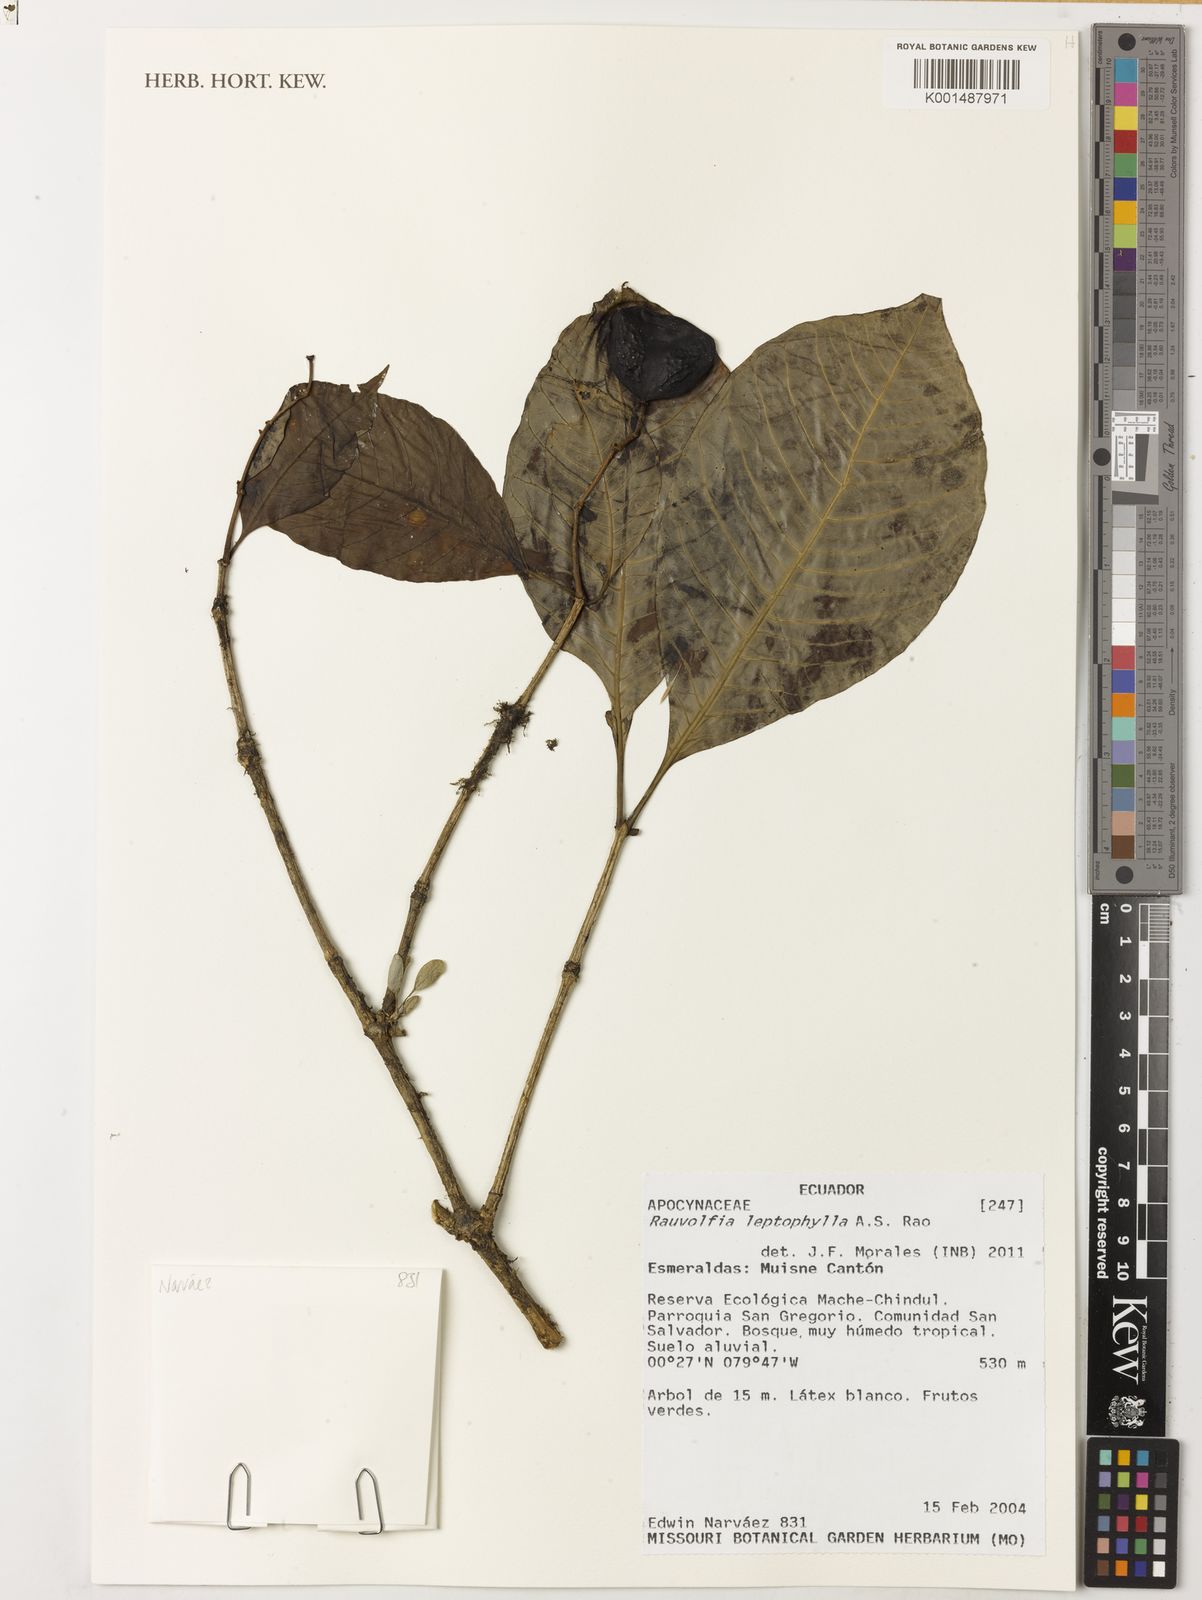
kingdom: Plantae
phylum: Tracheophyta
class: Magnoliopsida
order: Gentianales
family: Apocynaceae
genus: Rauvolfia
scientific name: Rauvolfia leptophylla
